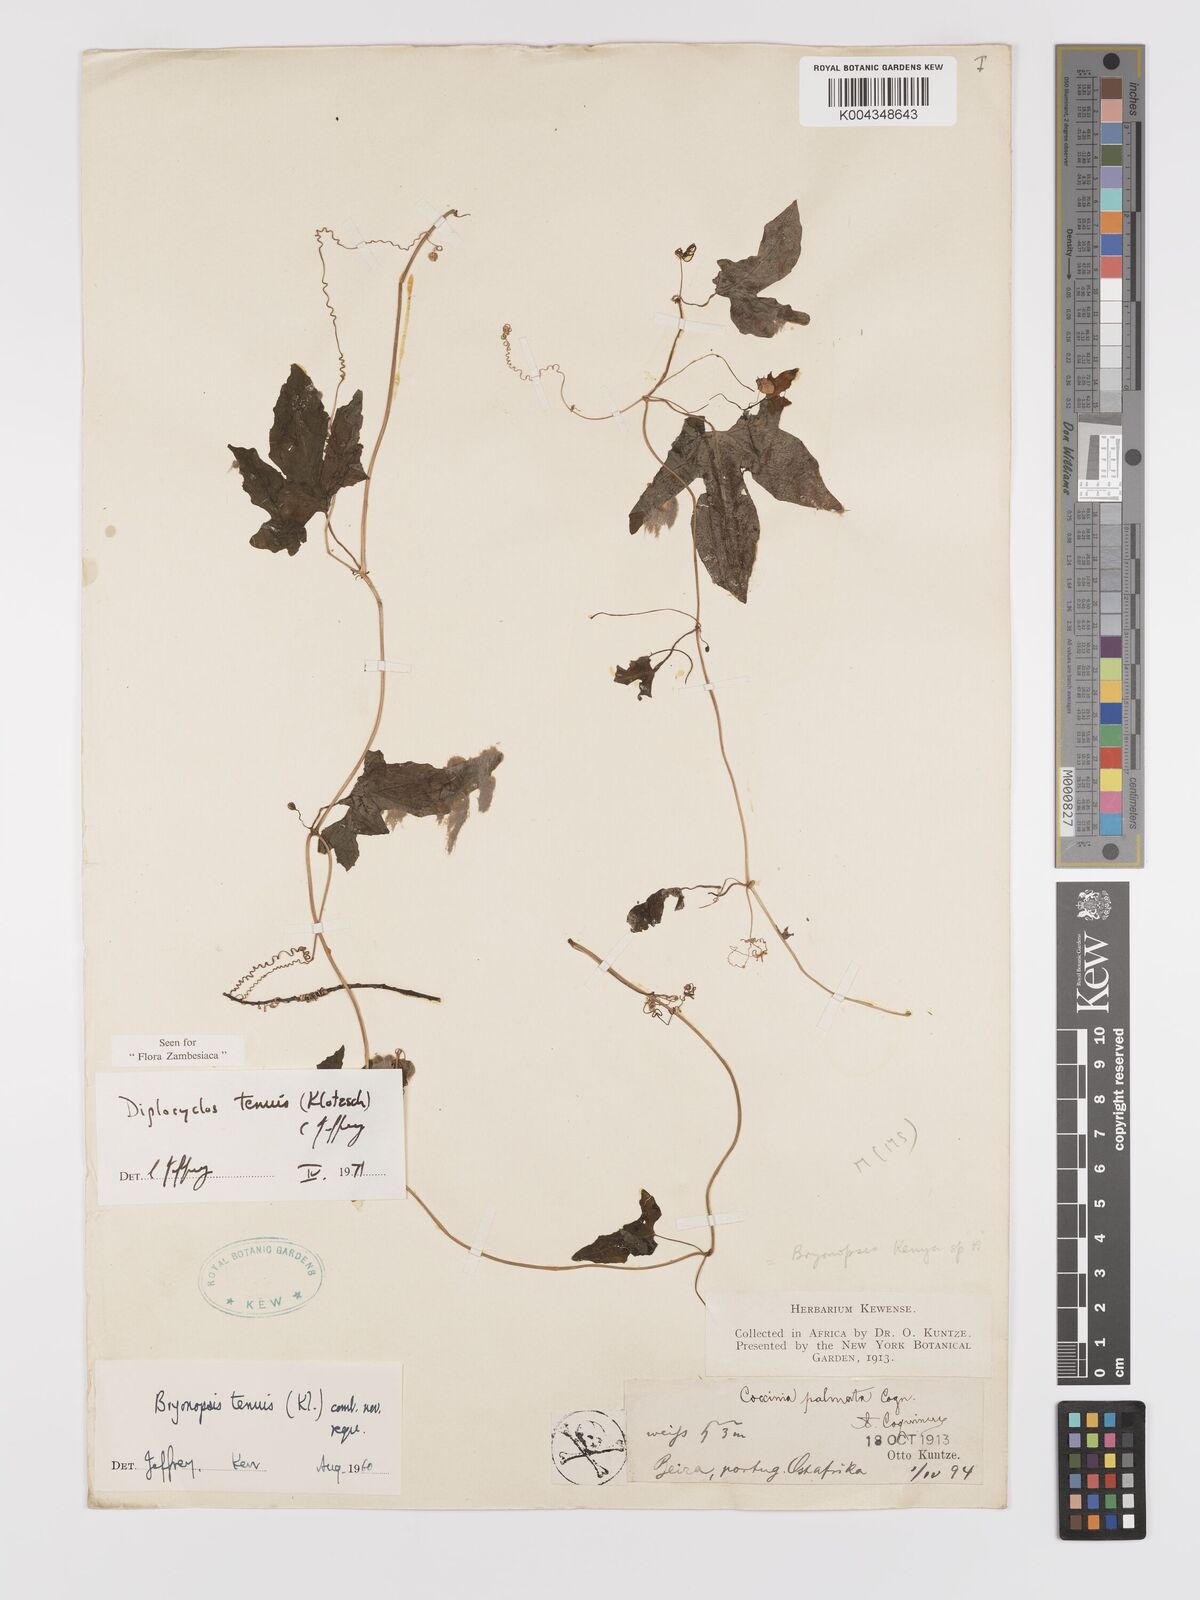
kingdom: Plantae
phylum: Tracheophyta
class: Magnoliopsida
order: Cucurbitales
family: Cucurbitaceae
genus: Diplocyclos
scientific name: Diplocyclos tenuis
